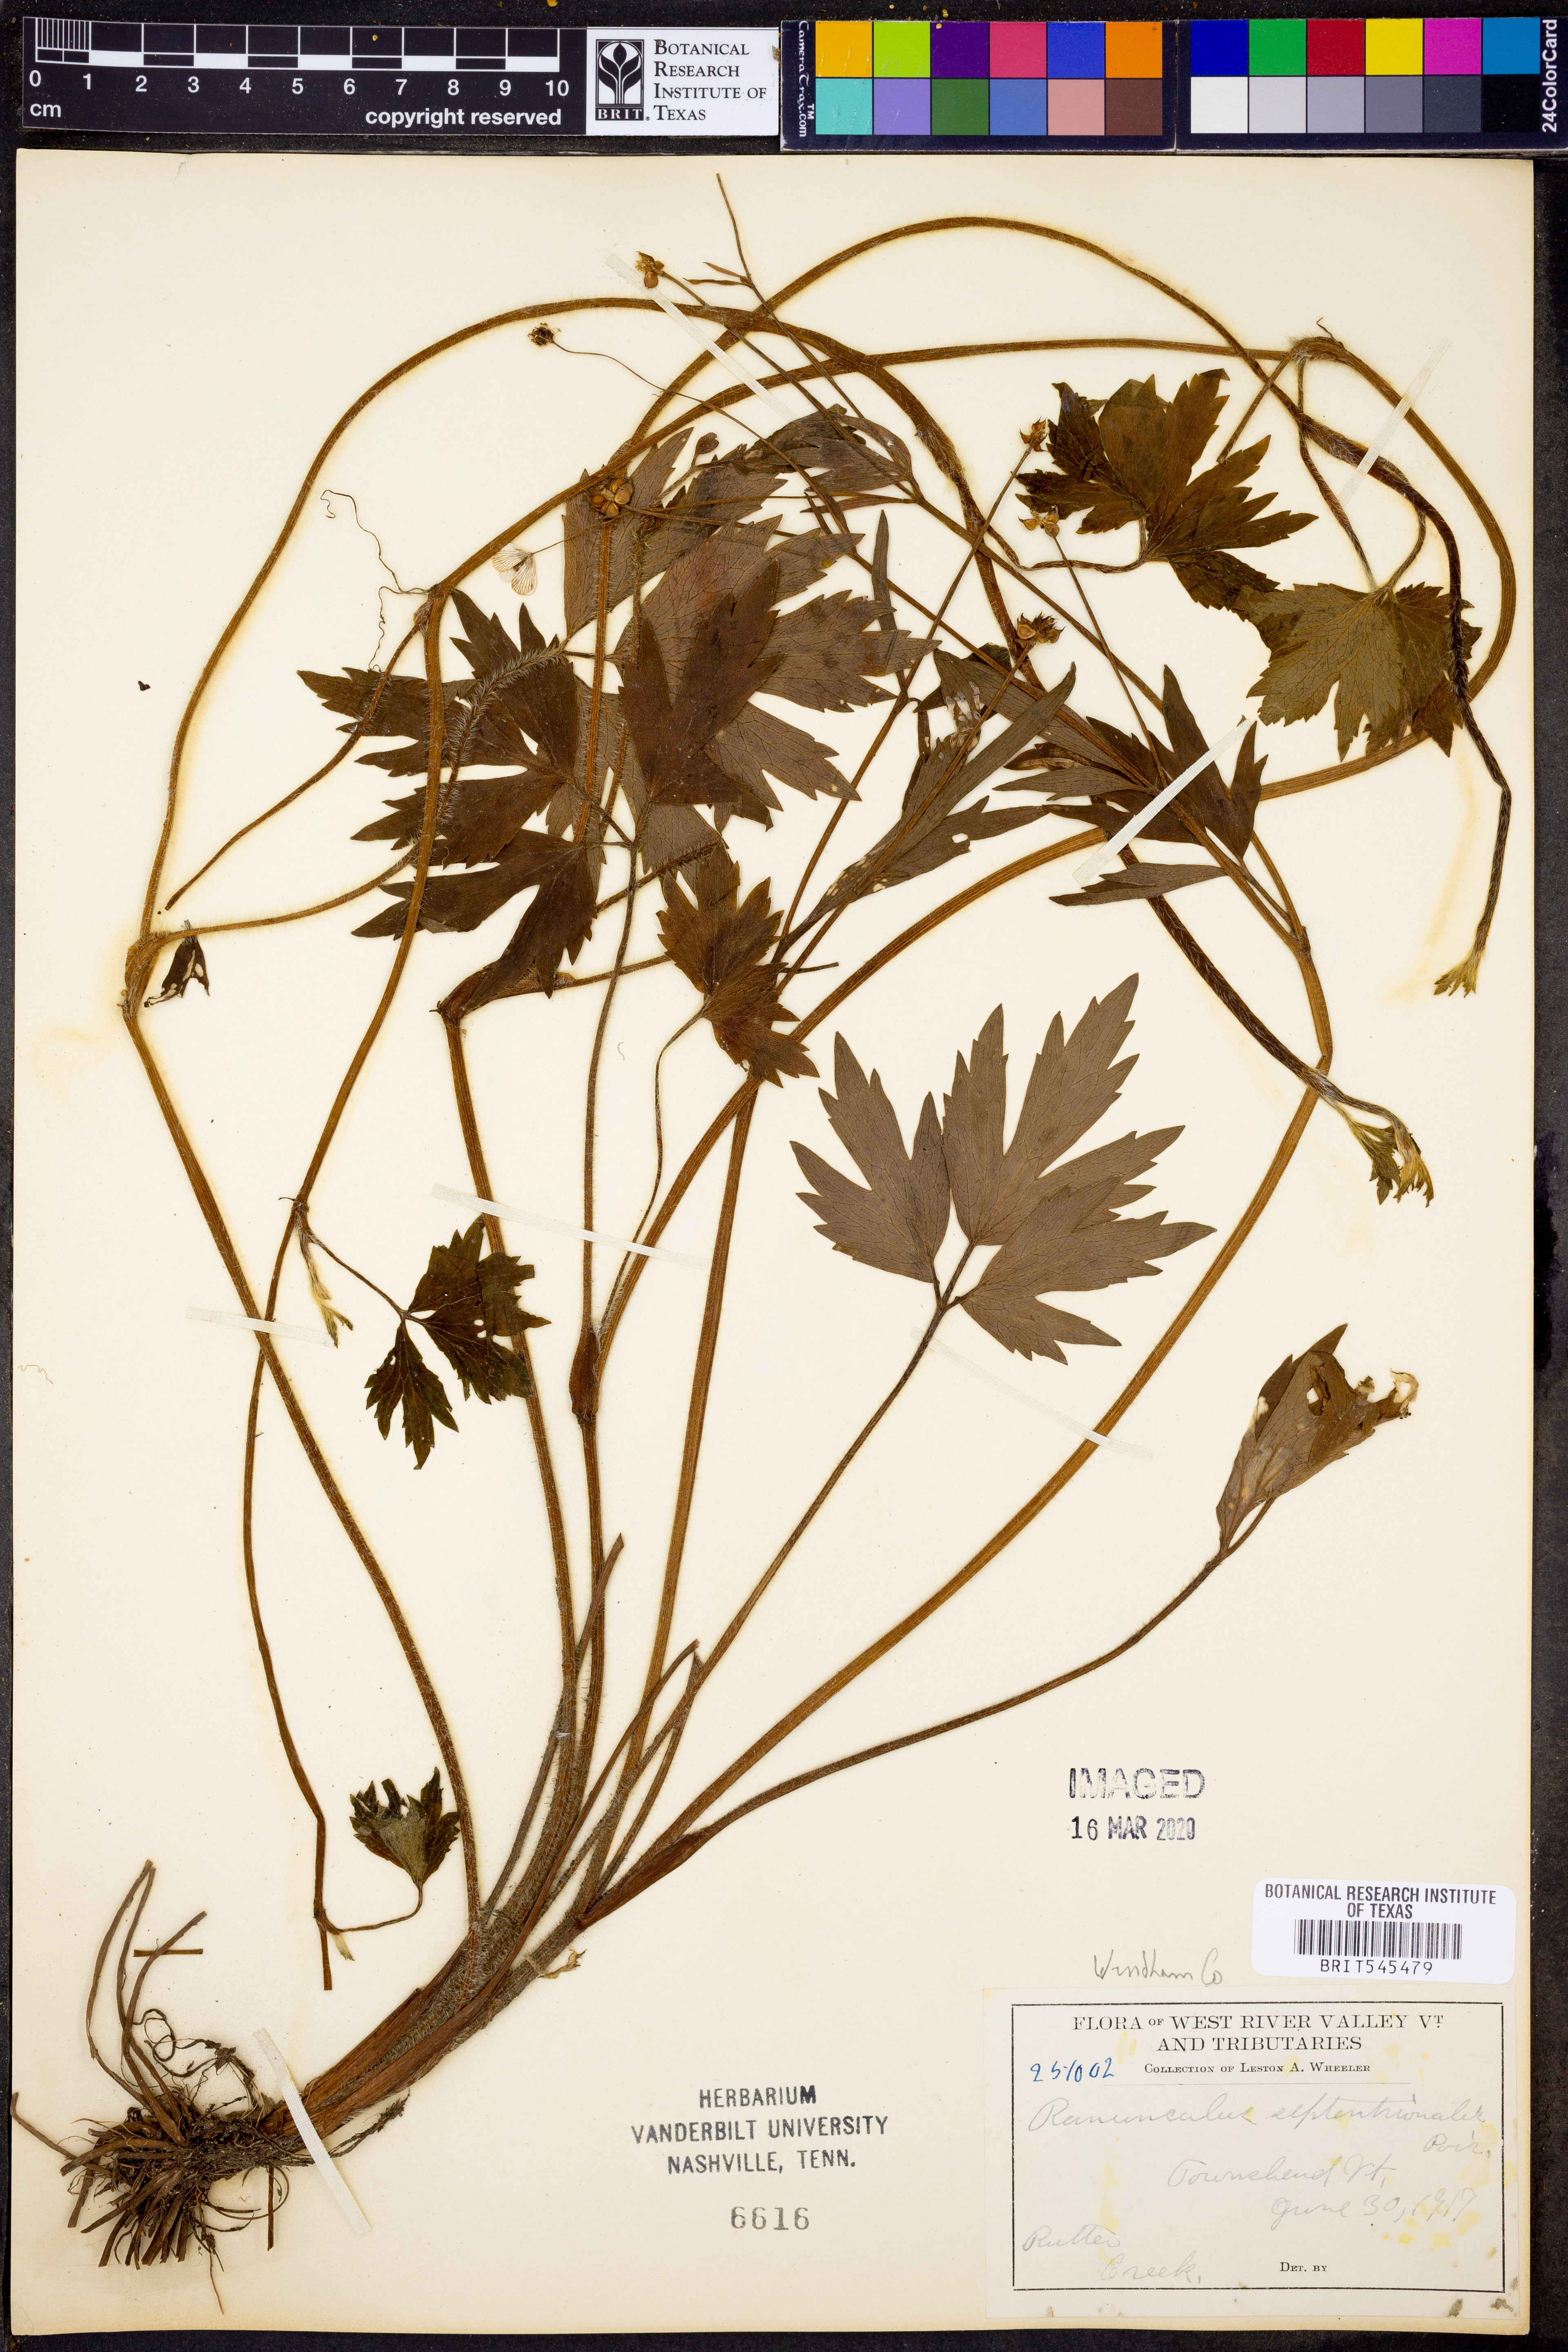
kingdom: Plantae
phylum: Tracheophyta
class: Magnoliopsida
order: Ranunculales
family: Ranunculaceae
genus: Ranunculus
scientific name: Ranunculus hispidus
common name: Bristly buttercup
